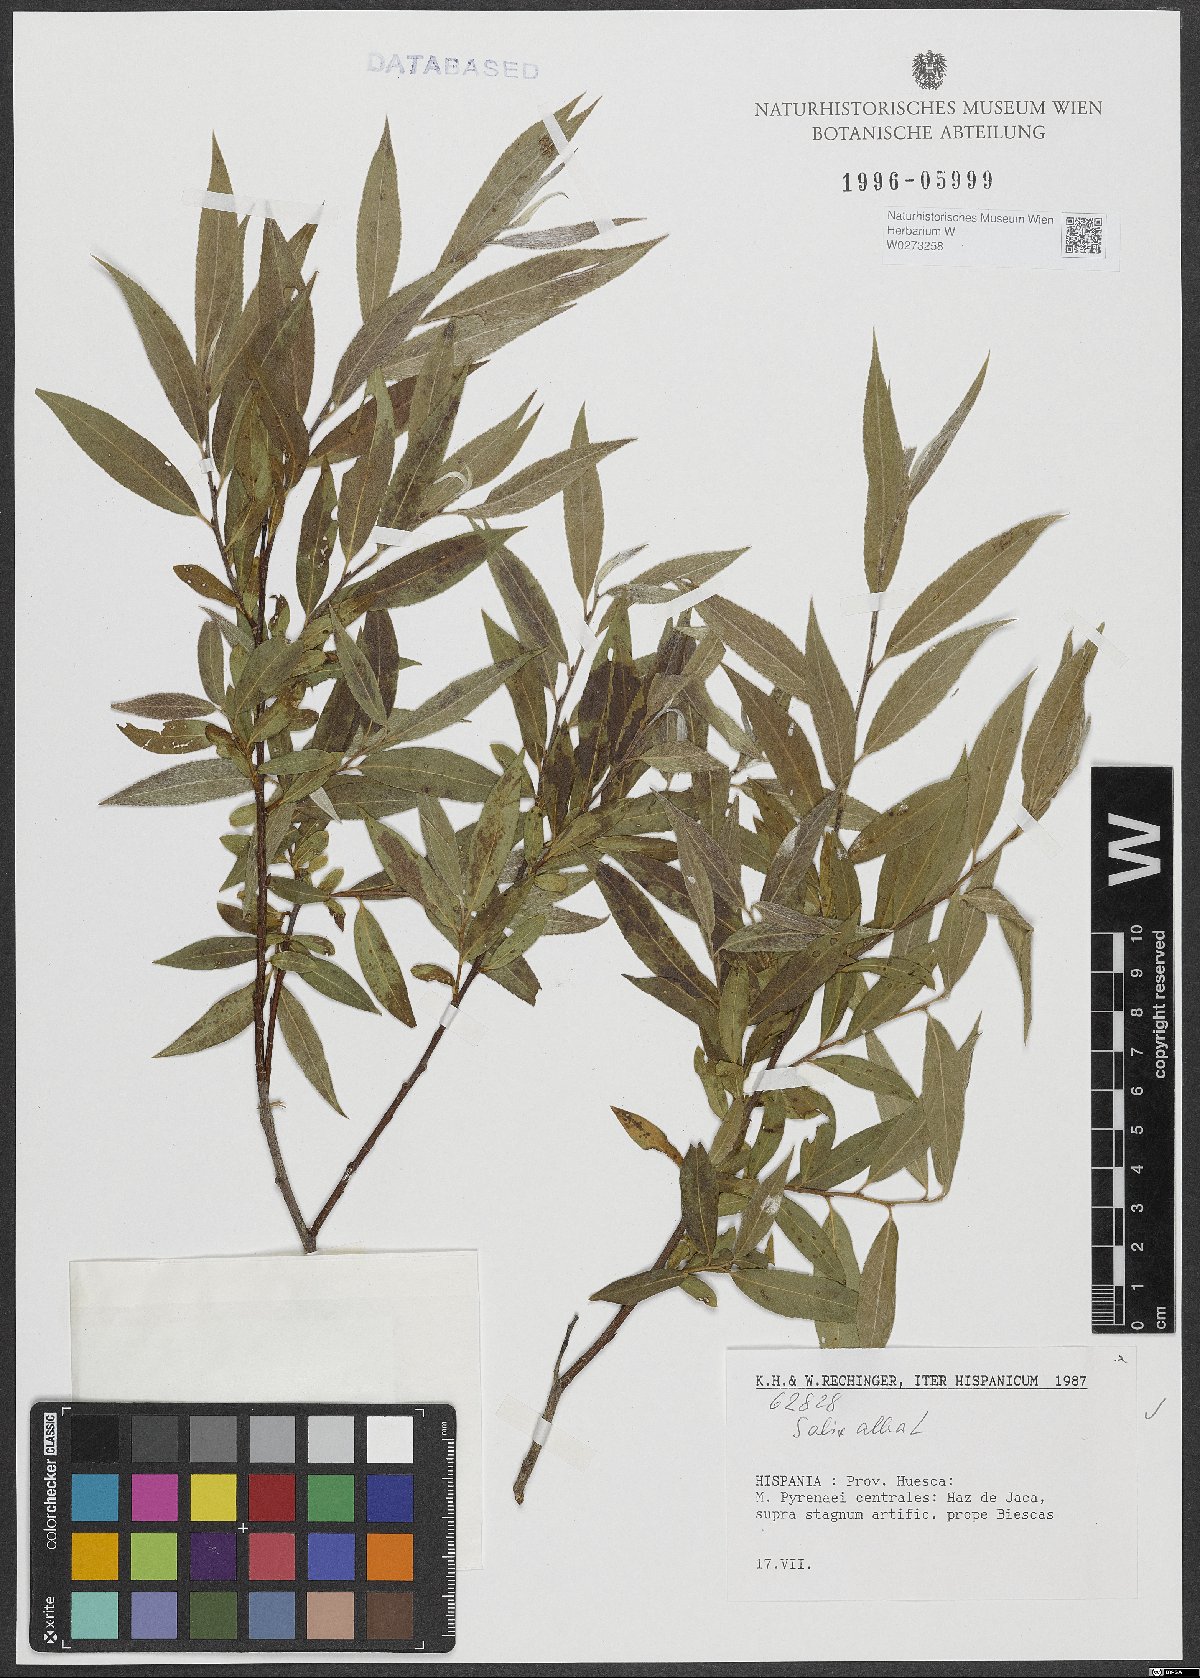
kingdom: Plantae
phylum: Tracheophyta
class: Magnoliopsida
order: Malpighiales
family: Salicaceae
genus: Salix
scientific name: Salix alba
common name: White willow
